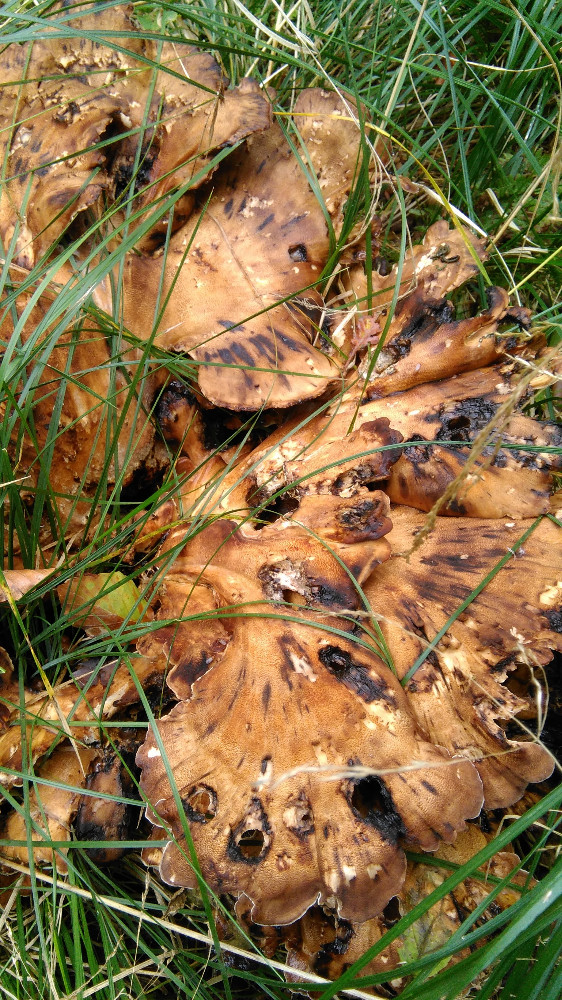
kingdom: Fungi
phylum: Basidiomycota
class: Agaricomycetes
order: Polyporales
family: Meripilaceae
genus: Meripilus
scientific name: Meripilus giganteus
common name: kæmpeporesvamp
